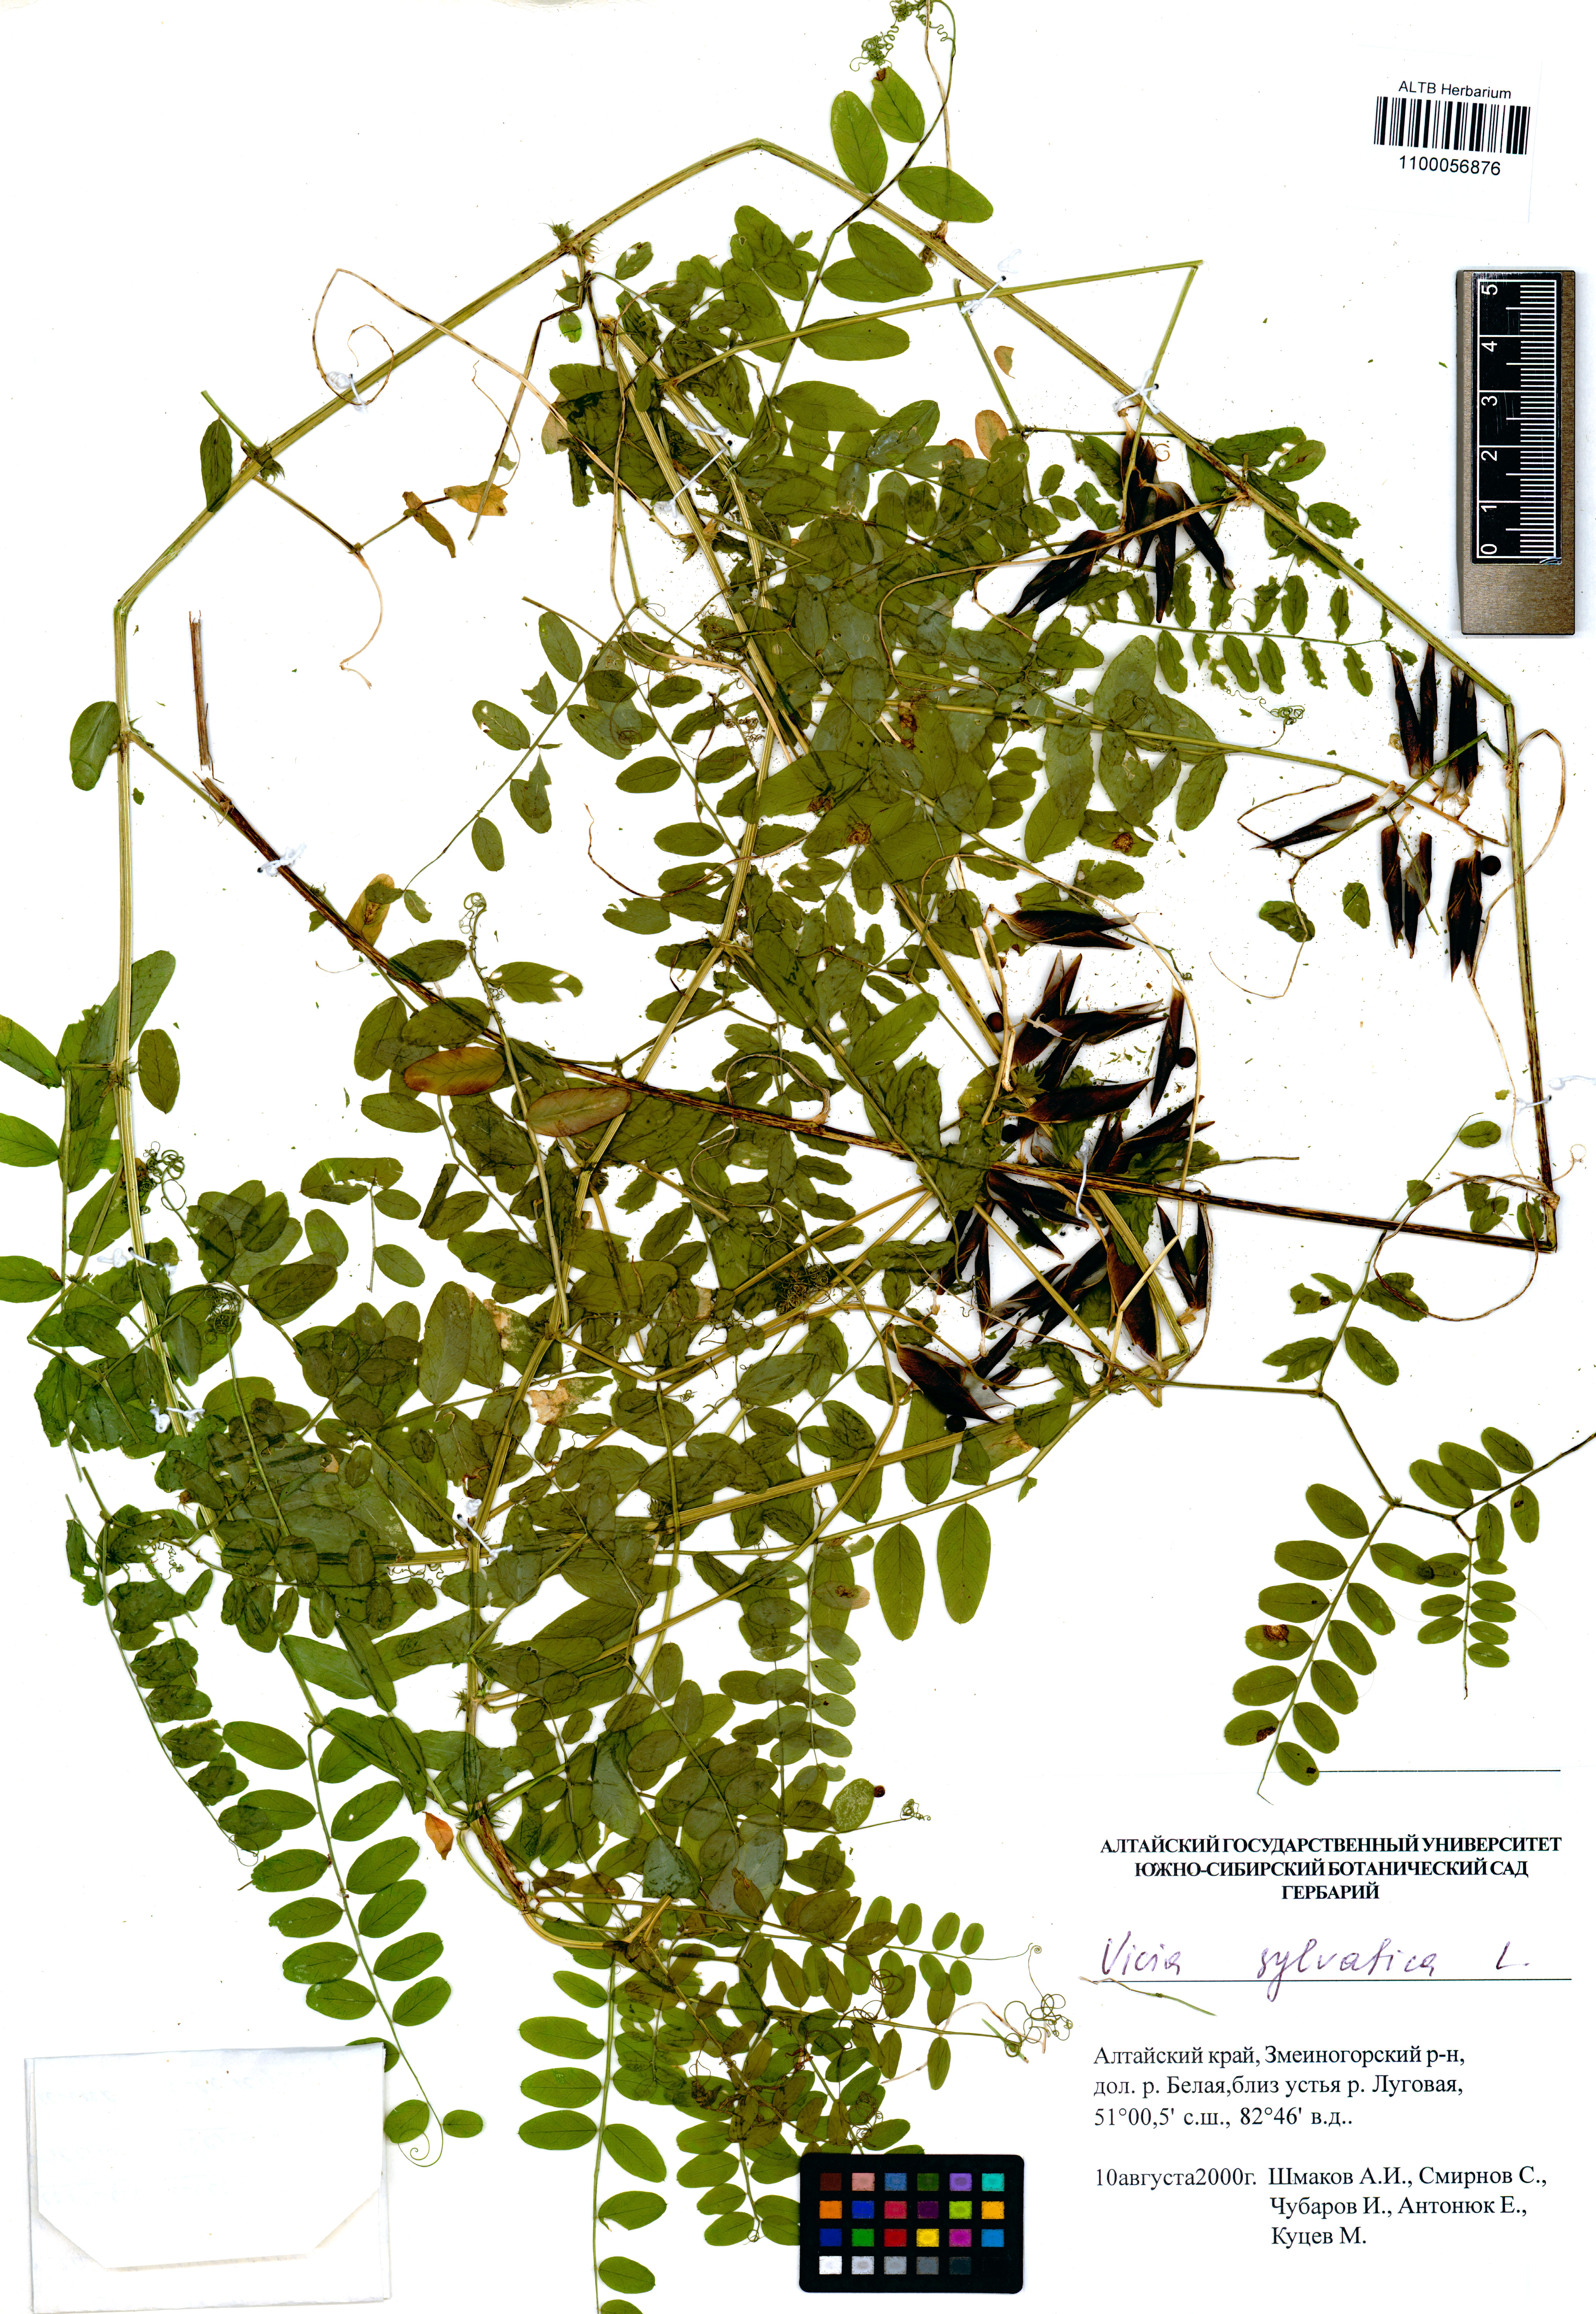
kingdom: Plantae
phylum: Tracheophyta
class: Magnoliopsida
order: Fabales
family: Fabaceae
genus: Vicia
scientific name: Vicia sylvatica
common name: Wood vetch
